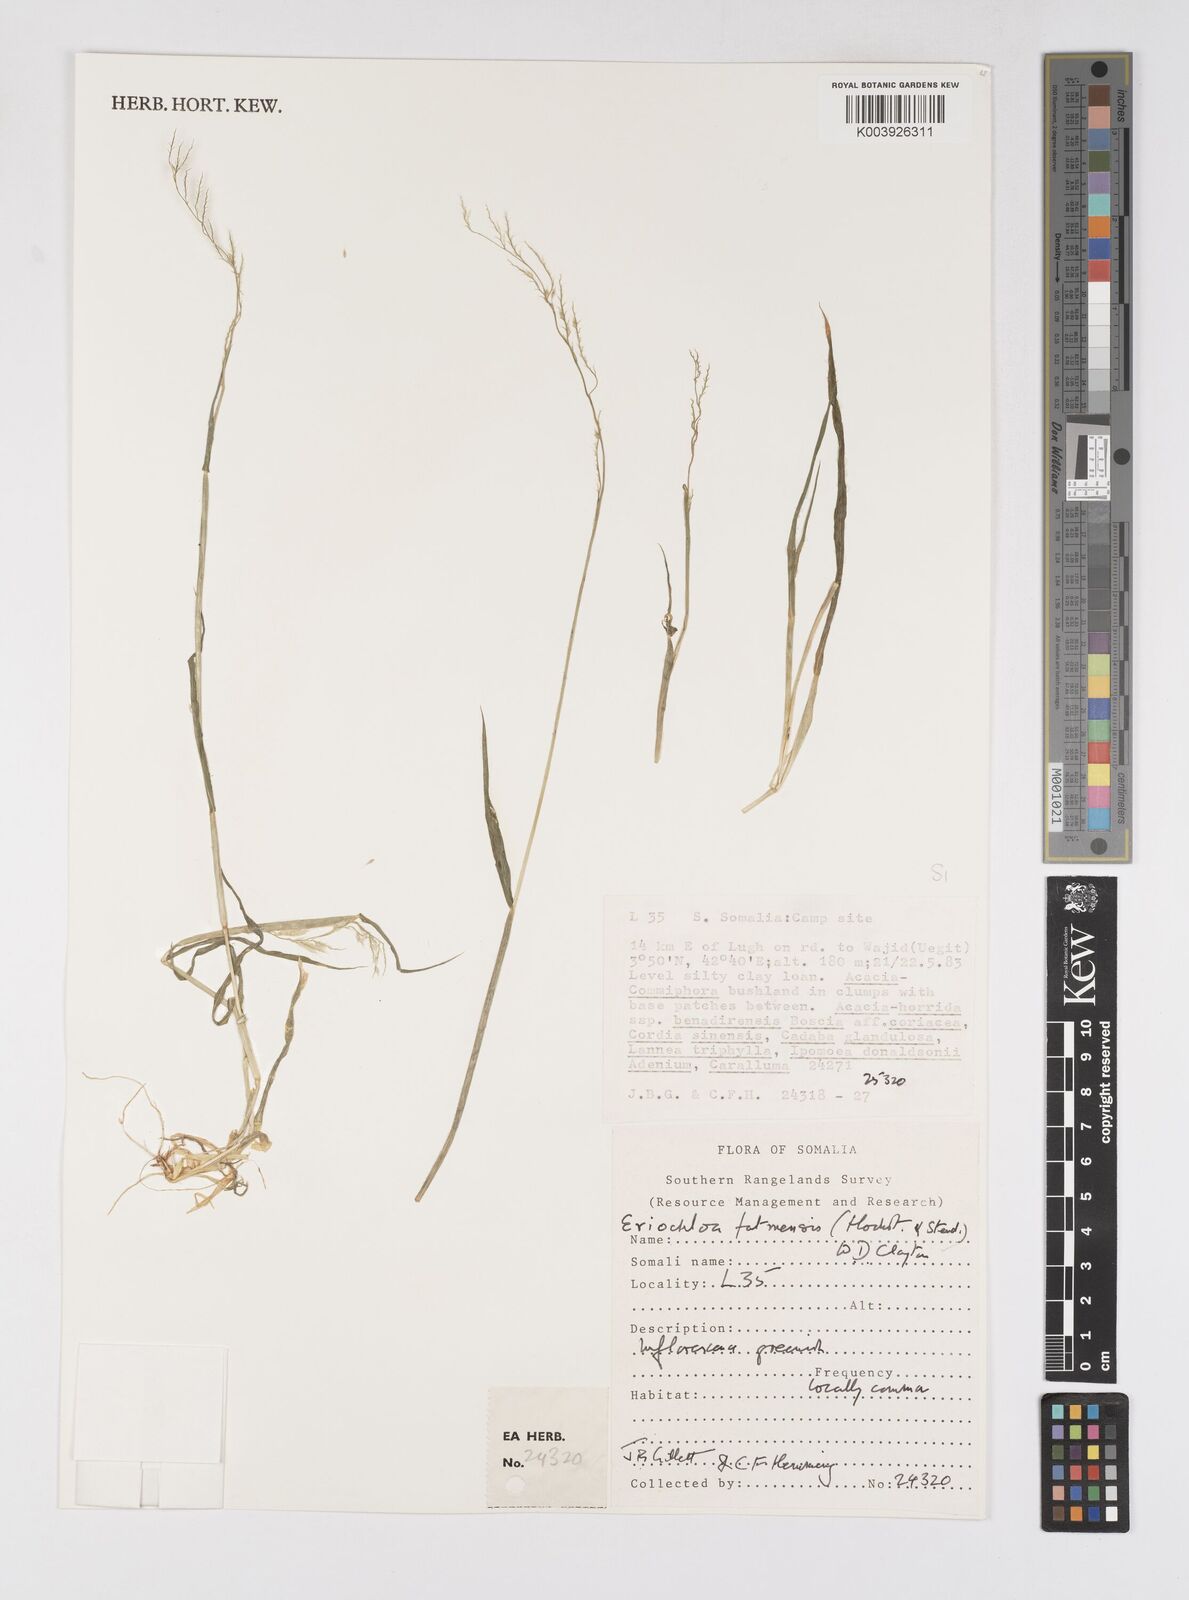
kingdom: Plantae
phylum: Tracheophyta
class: Liliopsida
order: Poales
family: Poaceae
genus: Eriochloa
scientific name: Eriochloa barbatus
